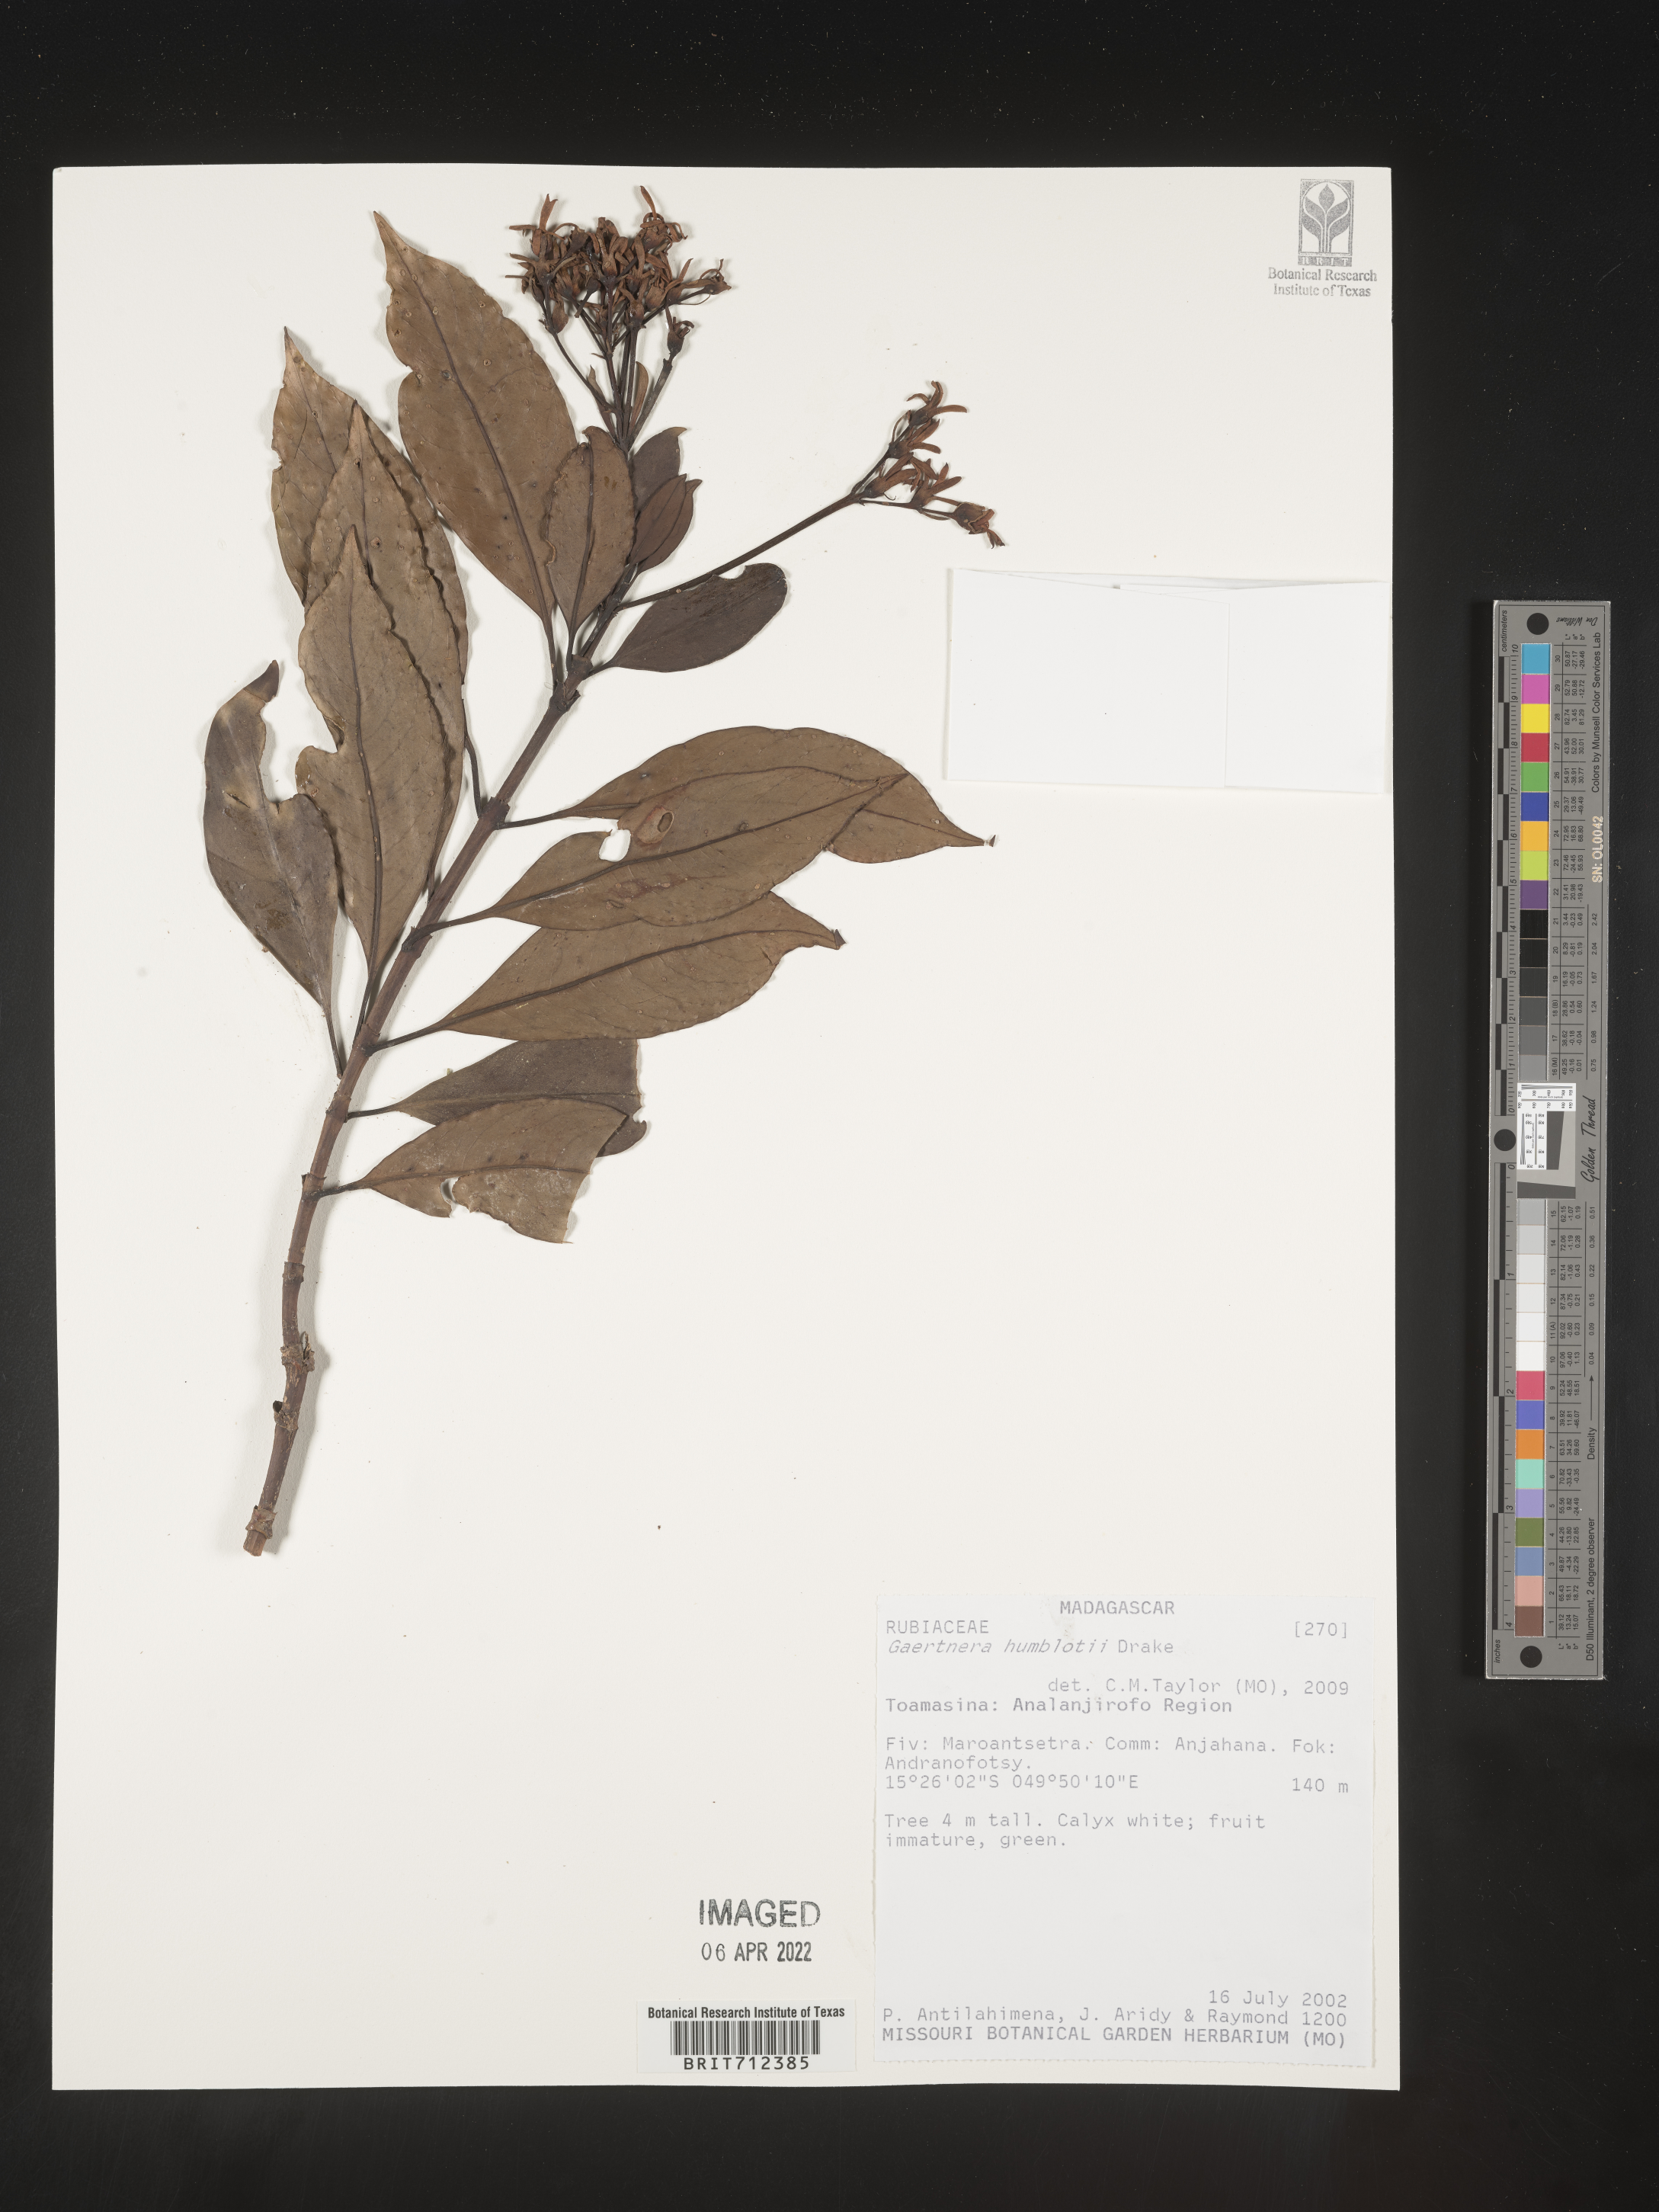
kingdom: Plantae
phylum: Tracheophyta
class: Magnoliopsida
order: Gentianales
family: Rubiaceae
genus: Gaertnera
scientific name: Gaertnera
